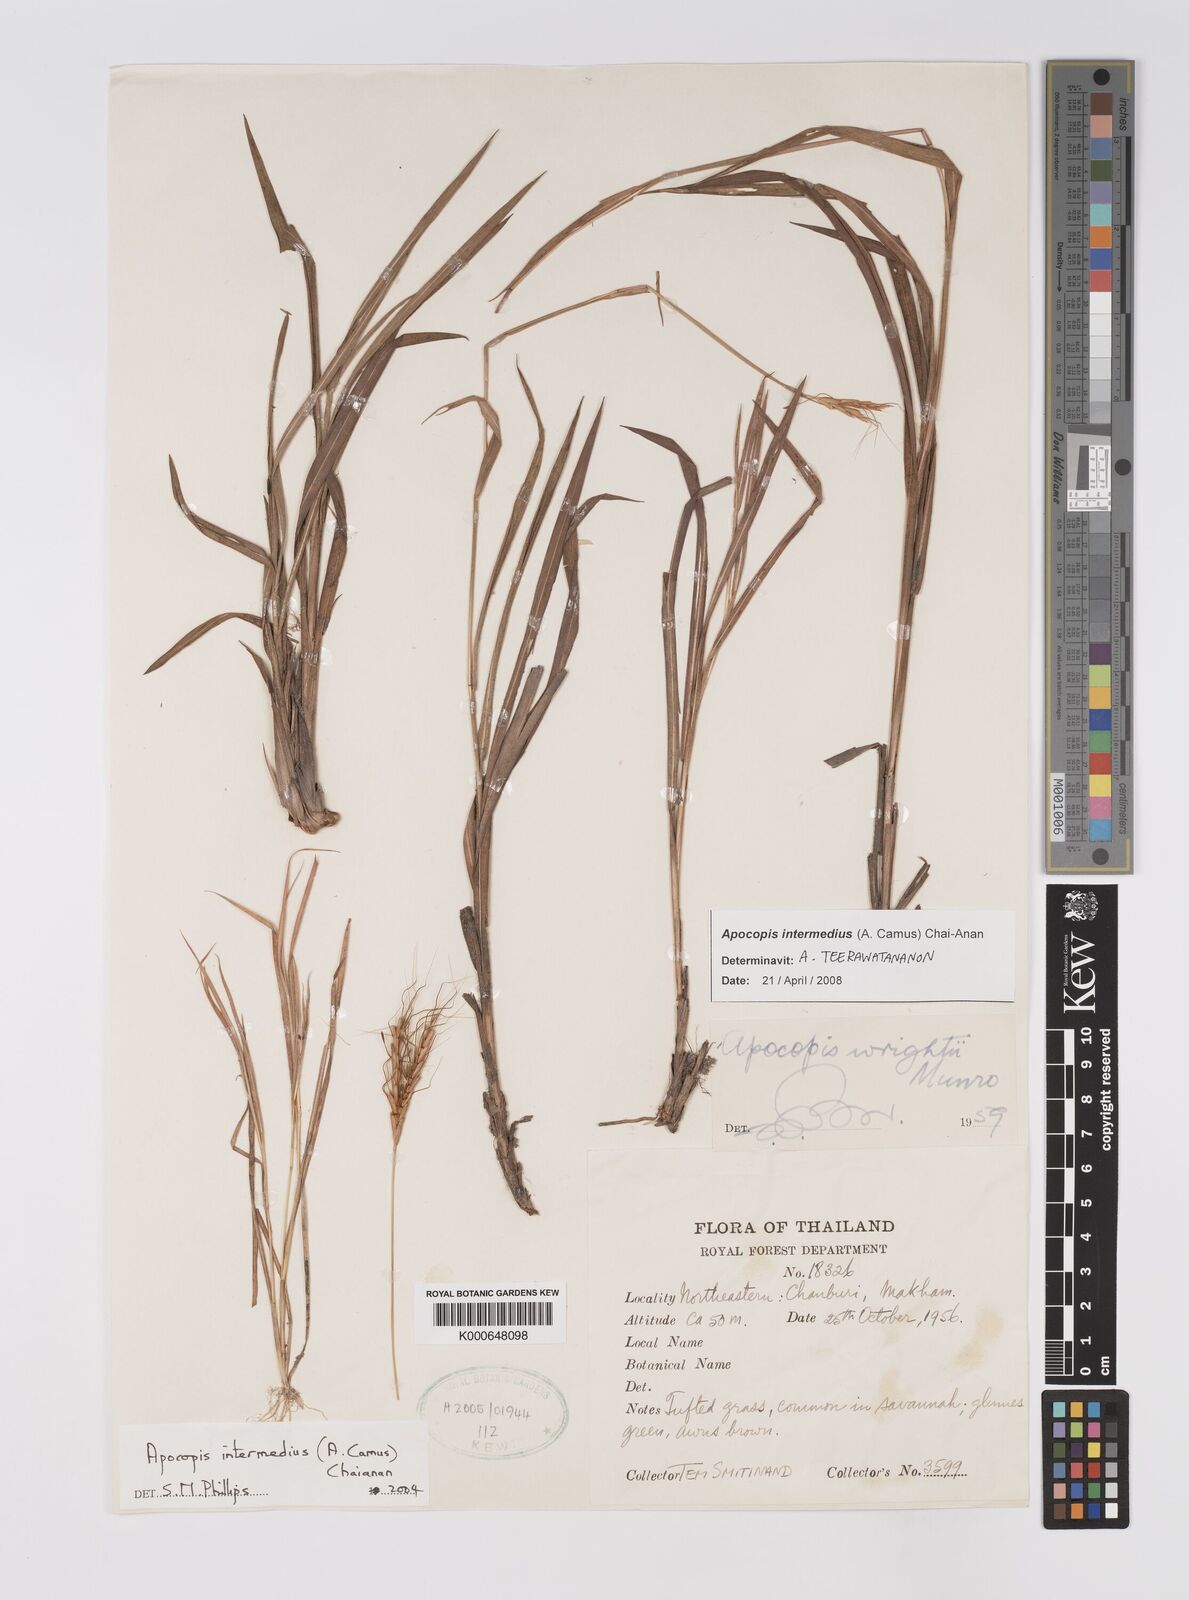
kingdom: Plantae
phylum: Tracheophyta
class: Liliopsida
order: Poales
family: Poaceae
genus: Apocopis
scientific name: Apocopis intermedius
